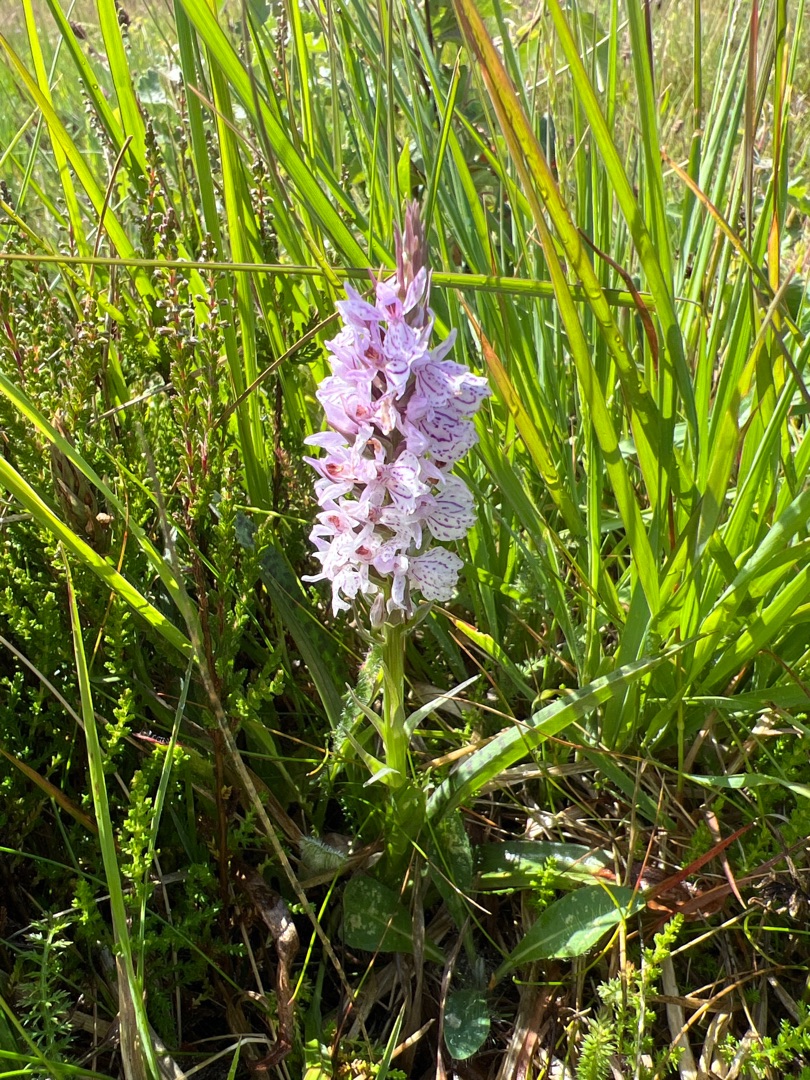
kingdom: Plantae
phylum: Tracheophyta
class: Liliopsida
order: Asparagales
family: Orchidaceae
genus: Dactylorhiza
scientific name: Dactylorhiza maculata
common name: Plettet gøgeurt (underart)
